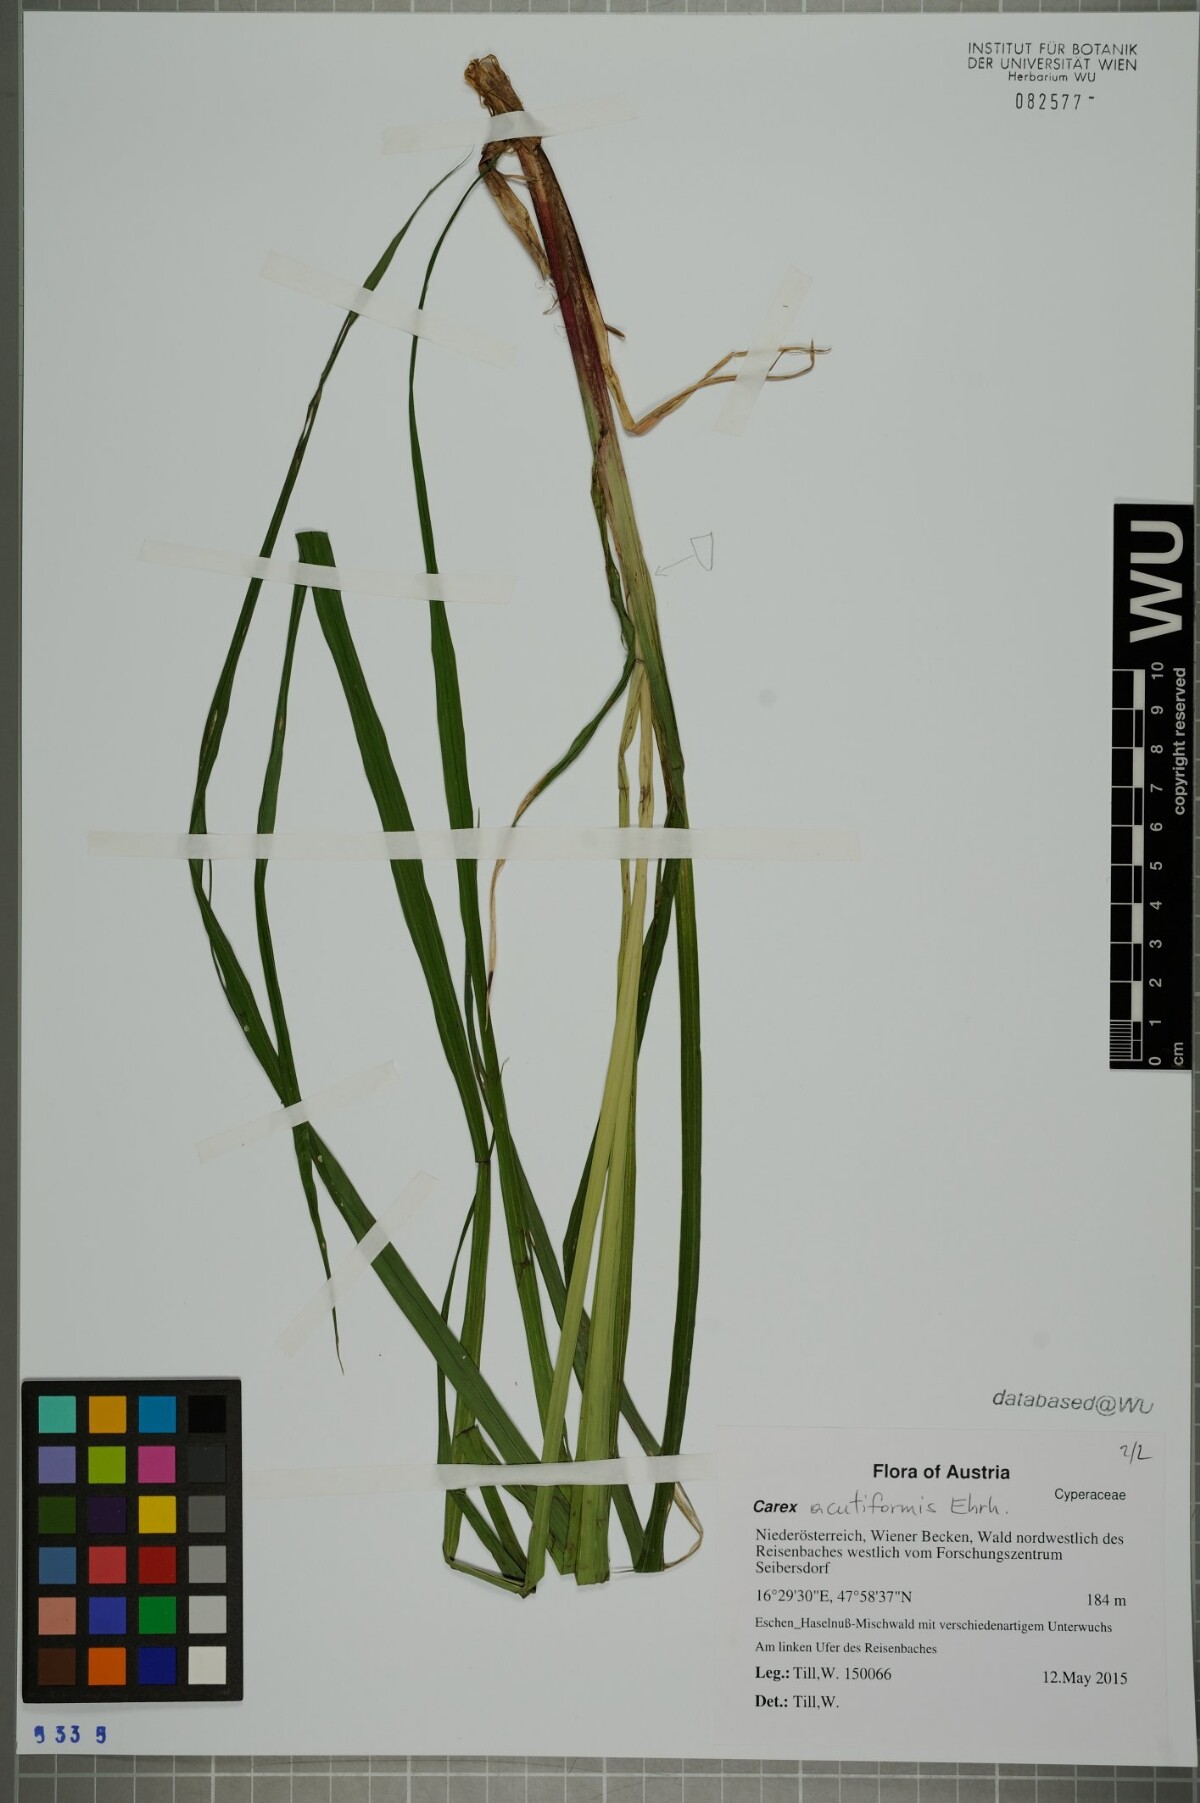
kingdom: Plantae
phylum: Tracheophyta
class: Liliopsida
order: Poales
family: Cyperaceae
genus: Carex
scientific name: Carex acutiformis
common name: Lesser pond-sedge
